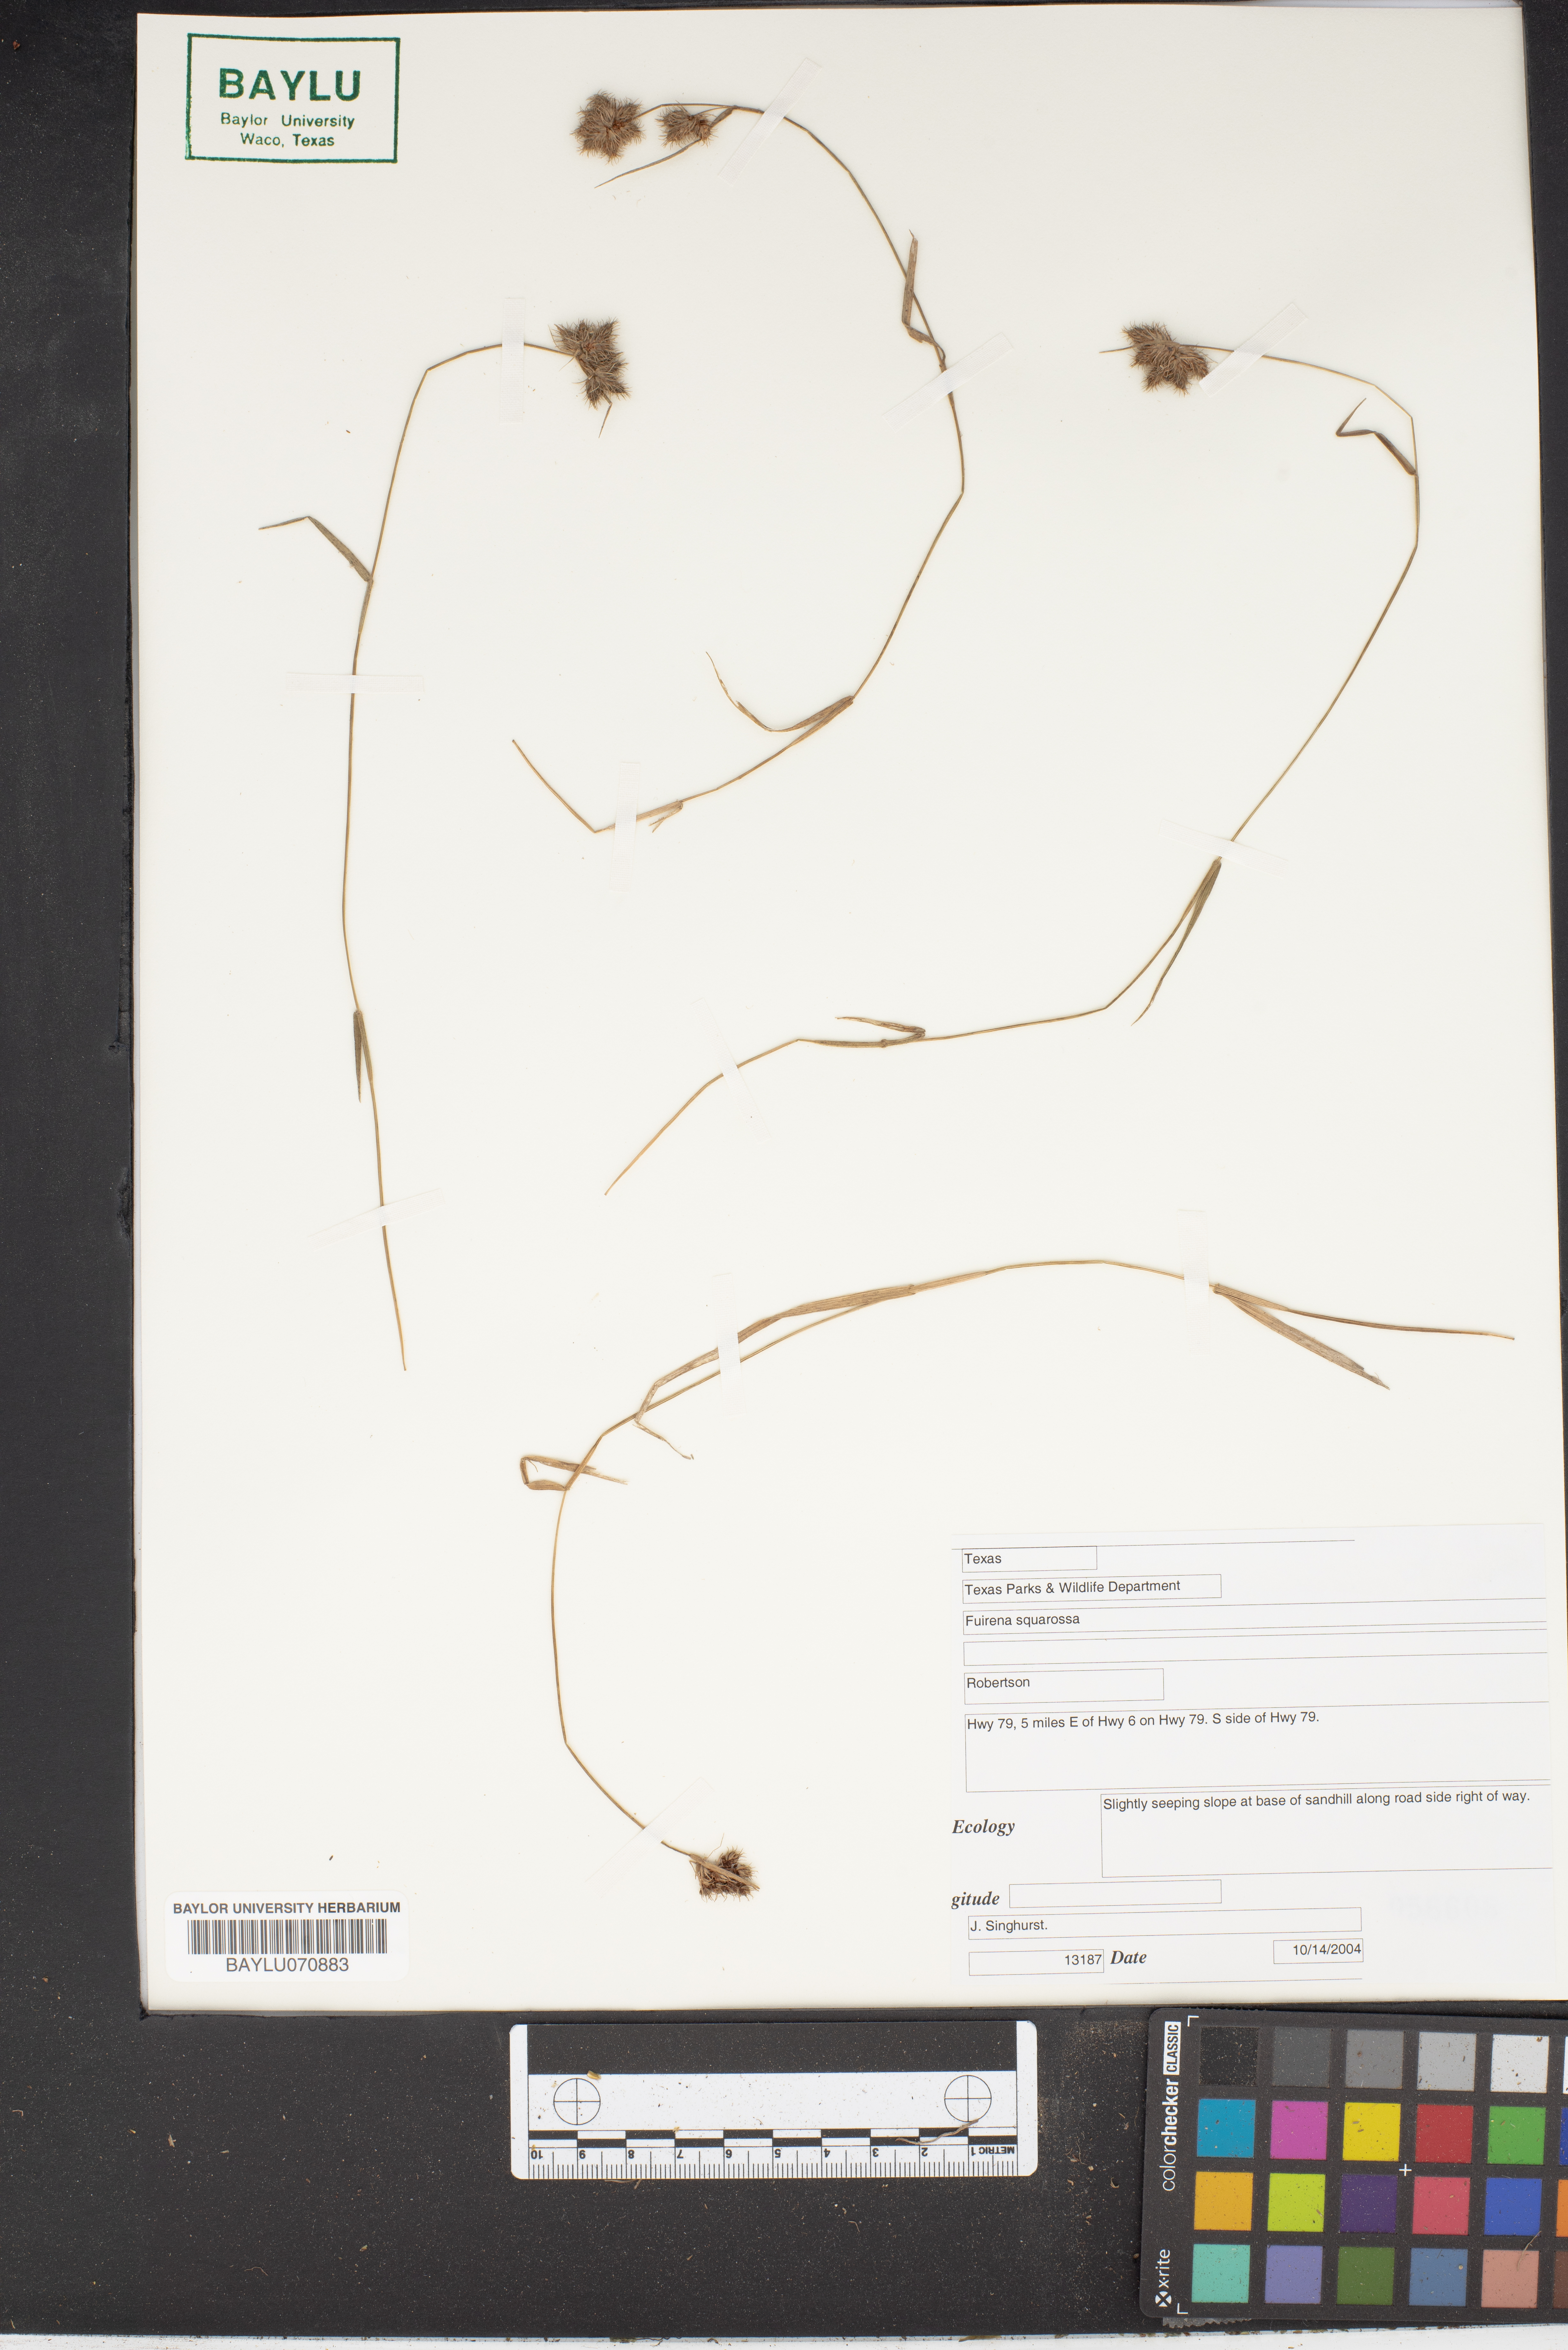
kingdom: Plantae
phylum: Tracheophyta
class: Liliopsida
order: Poales
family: Cyperaceae
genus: Fuirena
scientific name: Fuirena squarrosa
